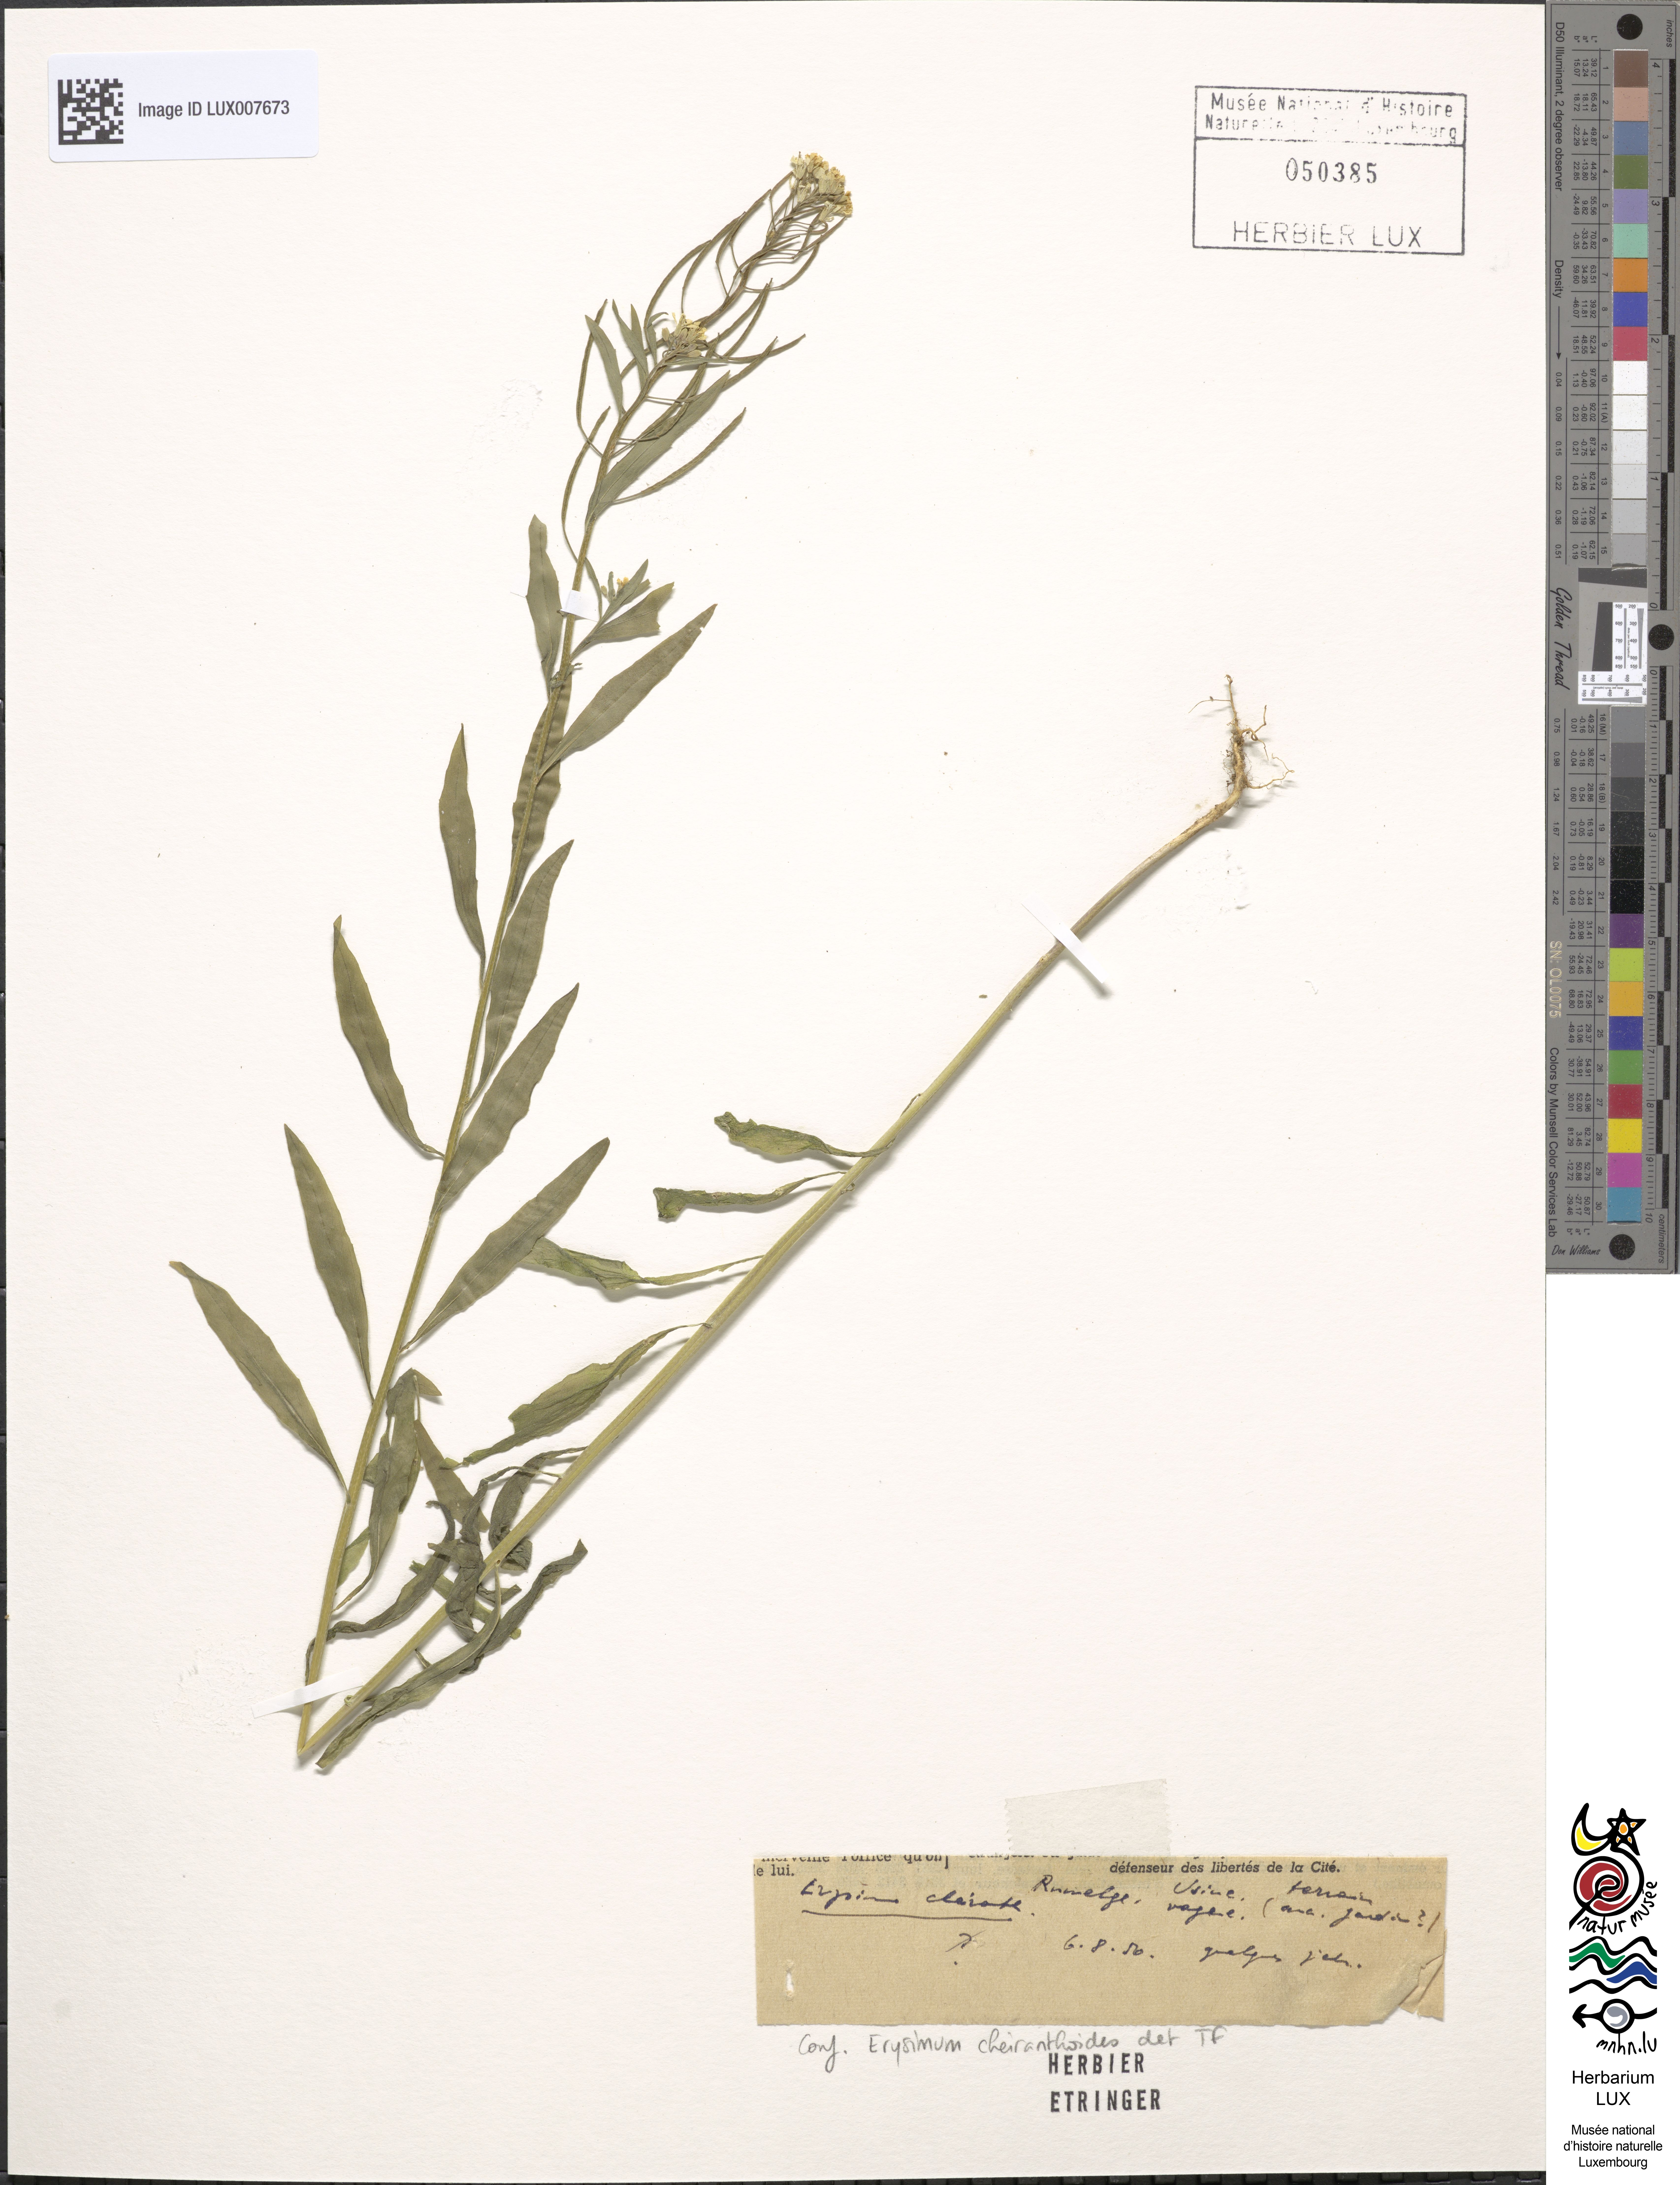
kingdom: Plantae
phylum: Tracheophyta
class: Magnoliopsida
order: Brassicales
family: Brassicaceae
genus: Erysimum
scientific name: Erysimum cheiranthoides
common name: Treacle mustard
